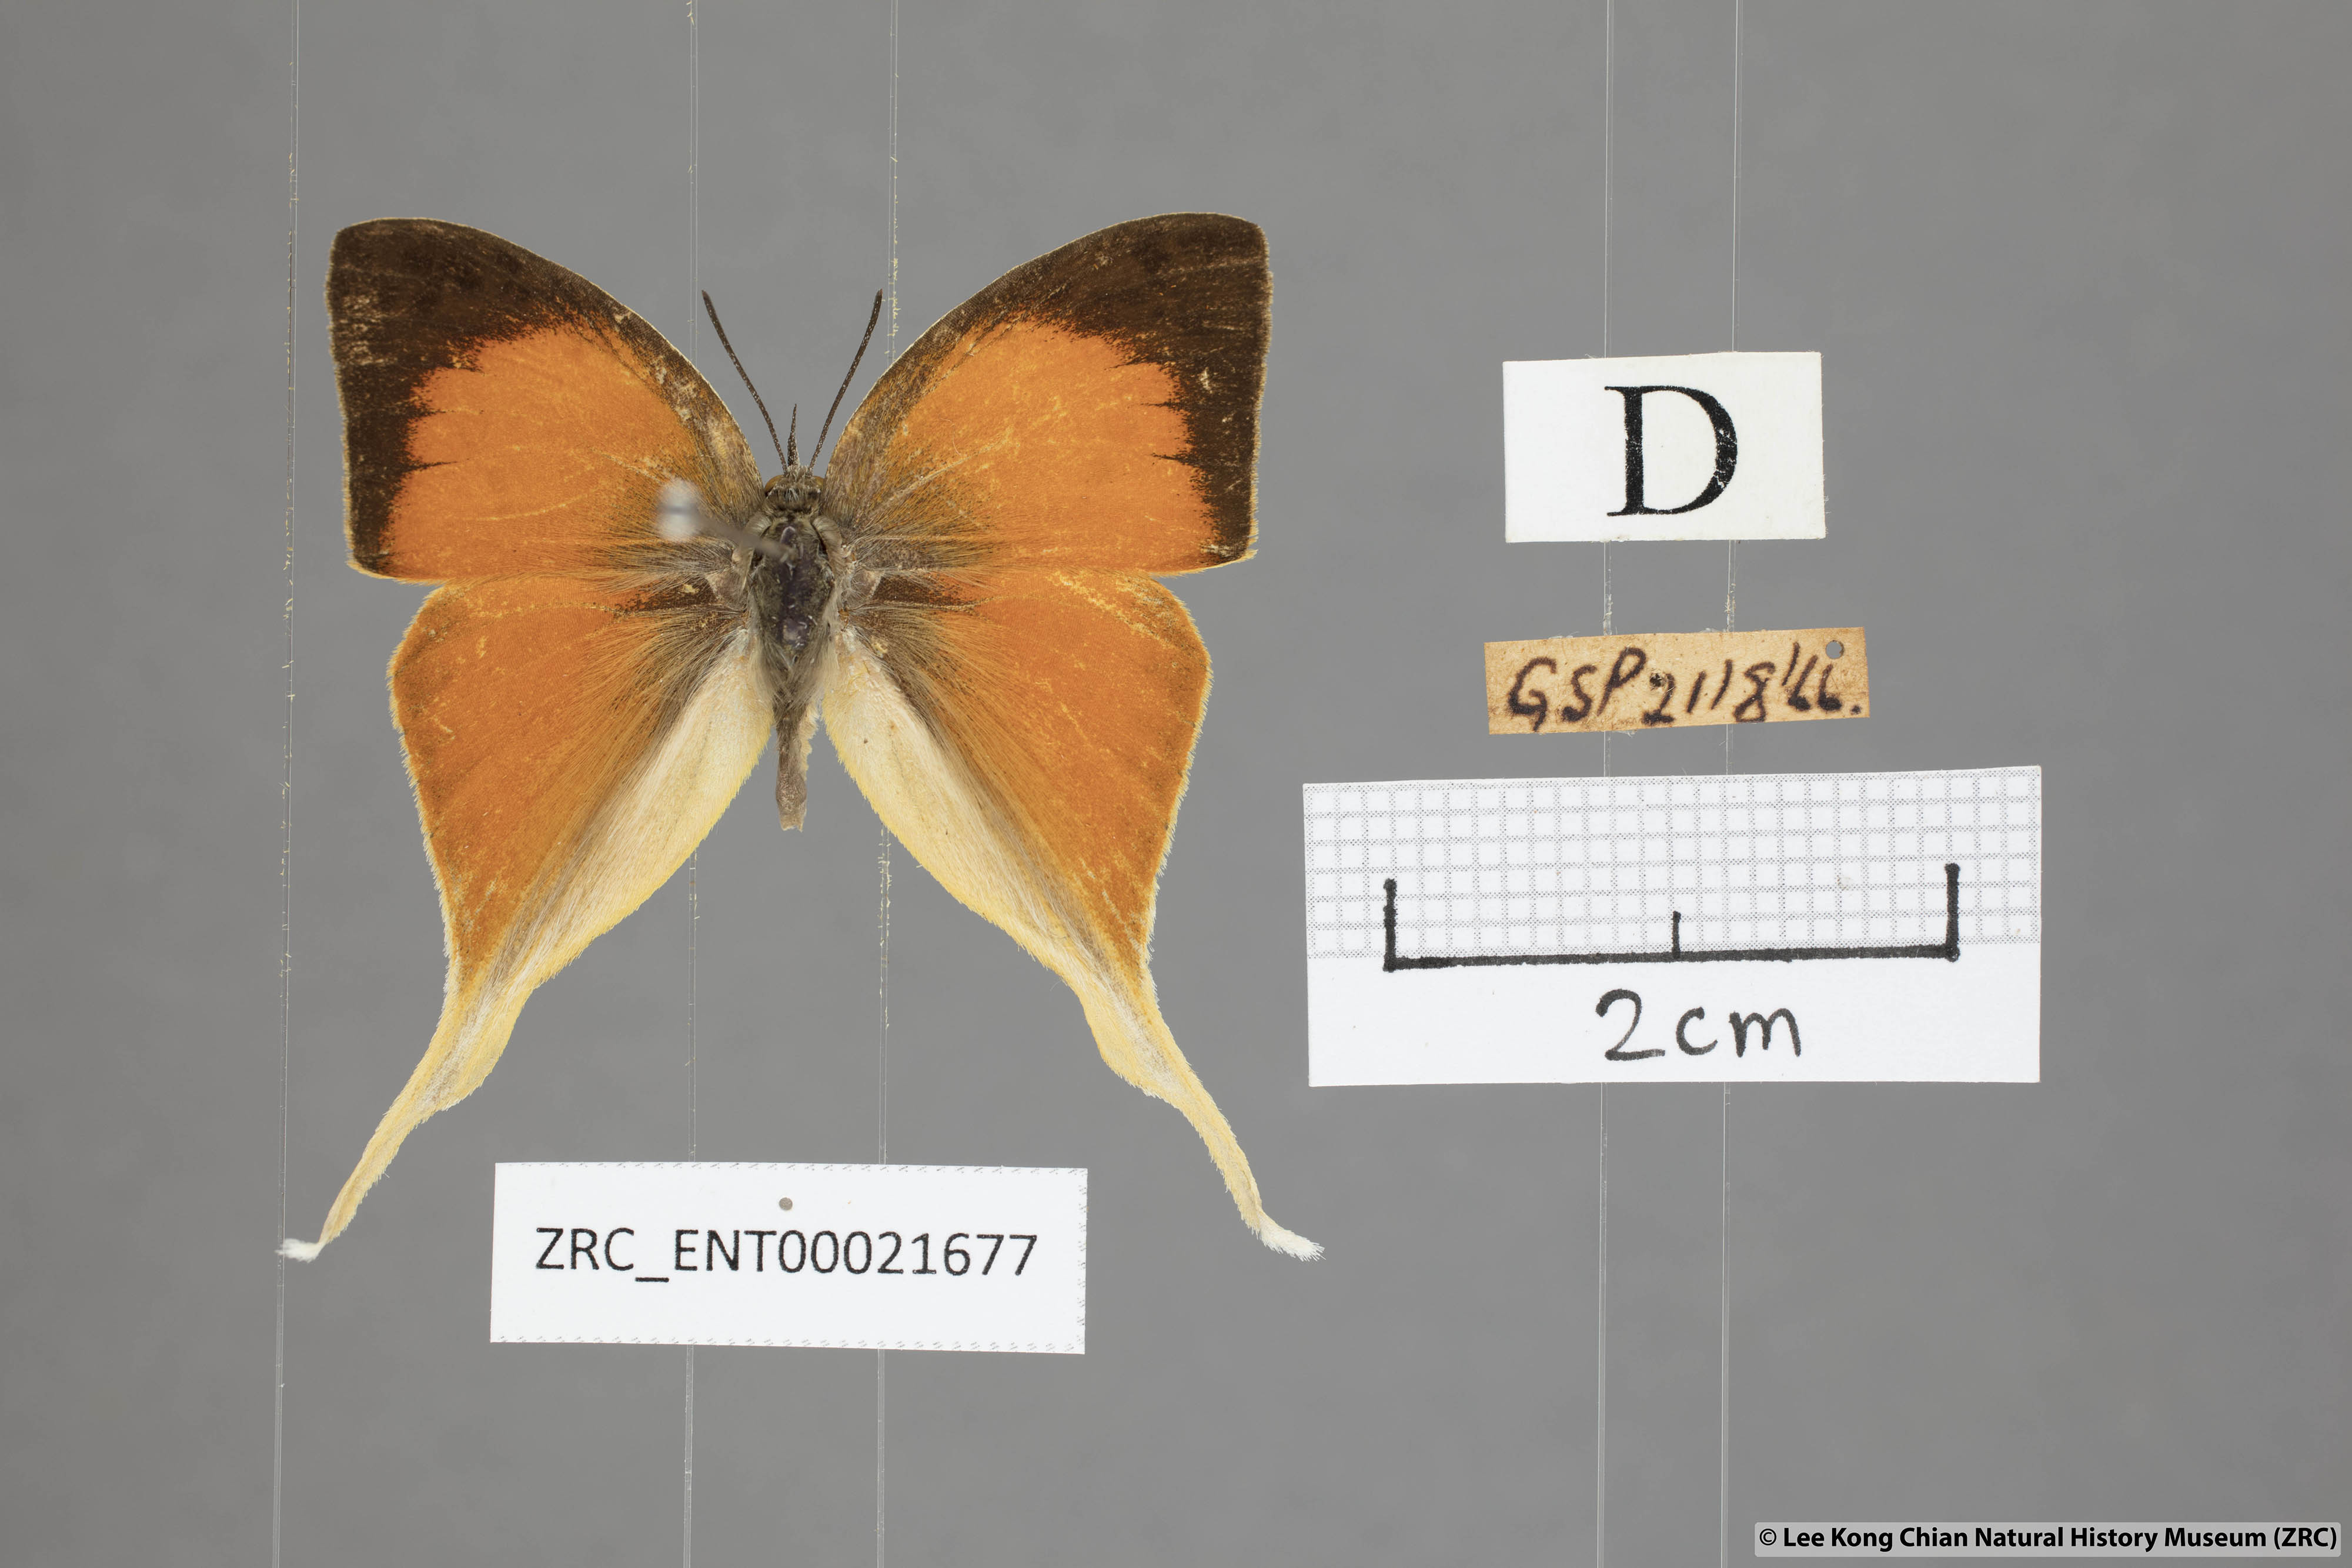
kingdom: Animalia
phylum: Arthropoda
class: Insecta
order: Lepidoptera
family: Lycaenidae
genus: Loxura
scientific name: Loxura cassiopeia
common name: Malayan yamfly
